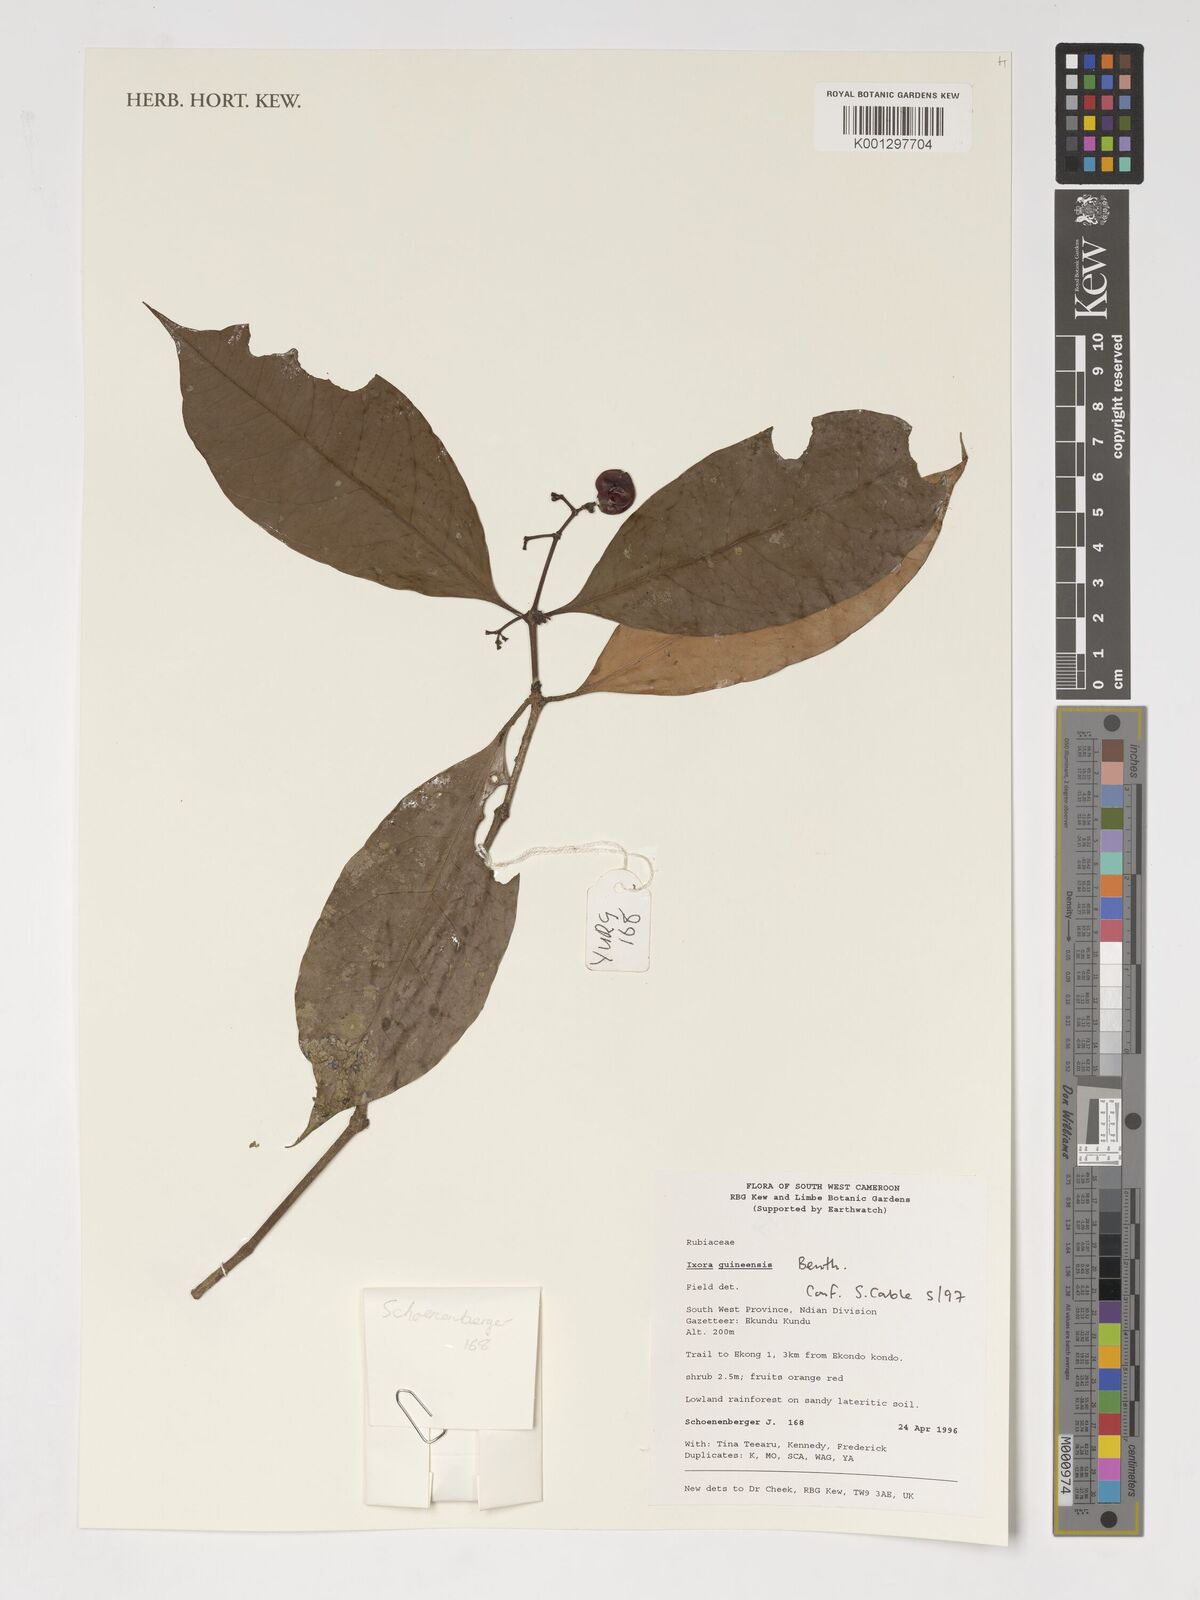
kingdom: Plantae
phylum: Tracheophyta
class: Magnoliopsida
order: Gentianales
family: Rubiaceae
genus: Ixora
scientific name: Ixora guineensis
